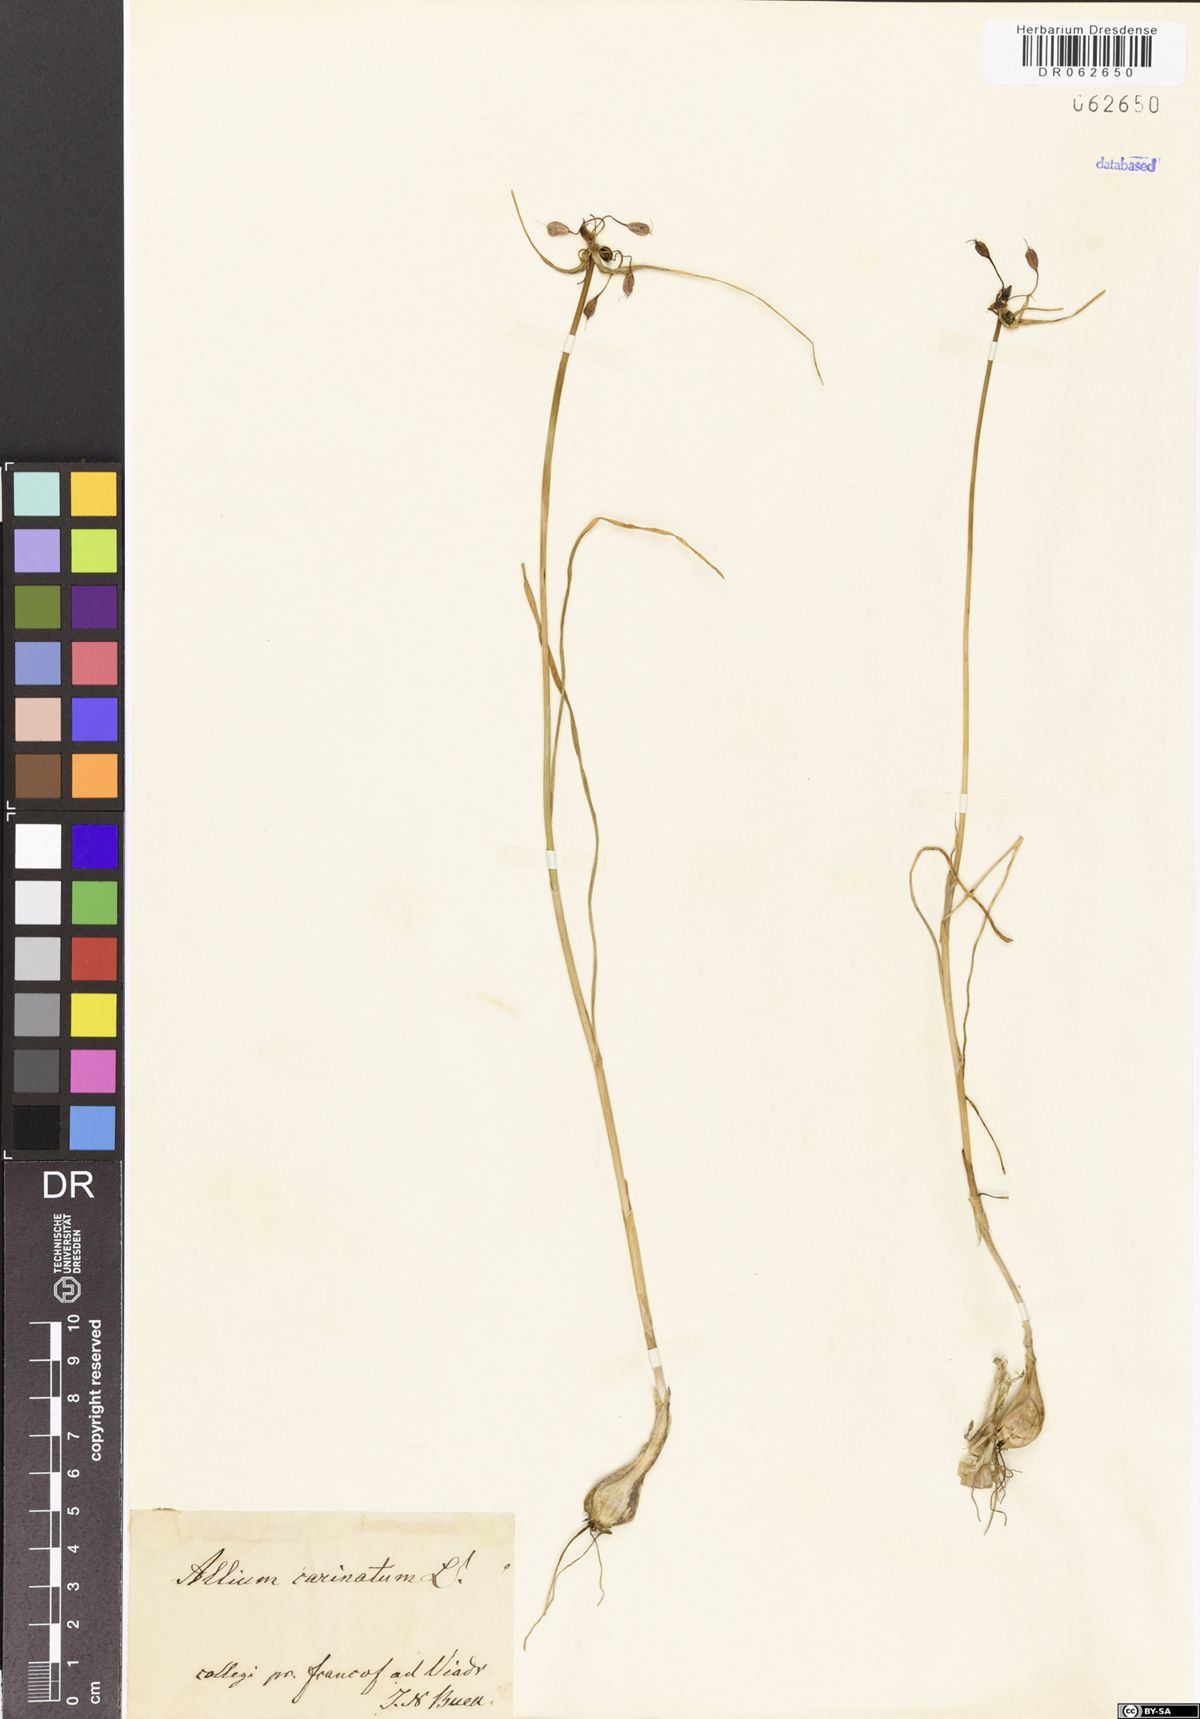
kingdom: Plantae
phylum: Tracheophyta
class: Liliopsida
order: Asparagales
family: Amaryllidaceae
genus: Allium
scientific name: Allium carinatum
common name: Keeled garlic
